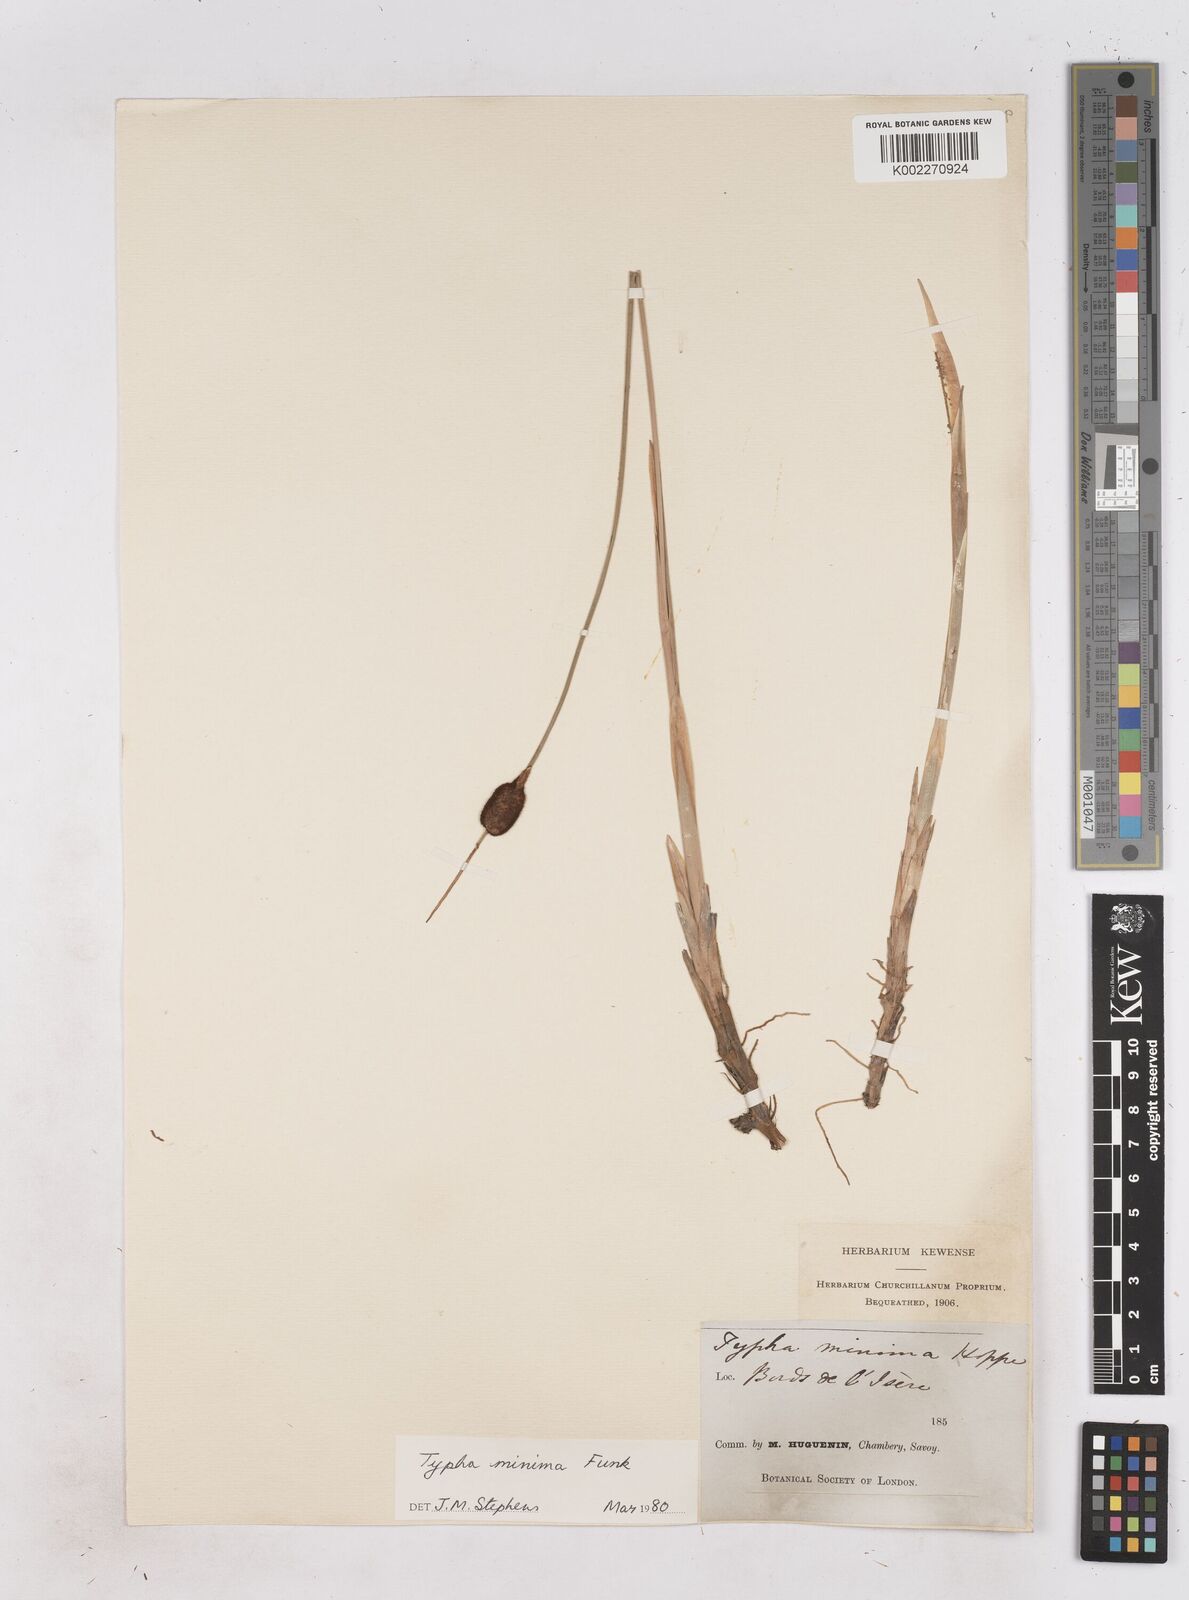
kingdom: Plantae
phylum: Tracheophyta
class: Liliopsida
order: Poales
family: Typhaceae
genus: Typha
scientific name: Typha
